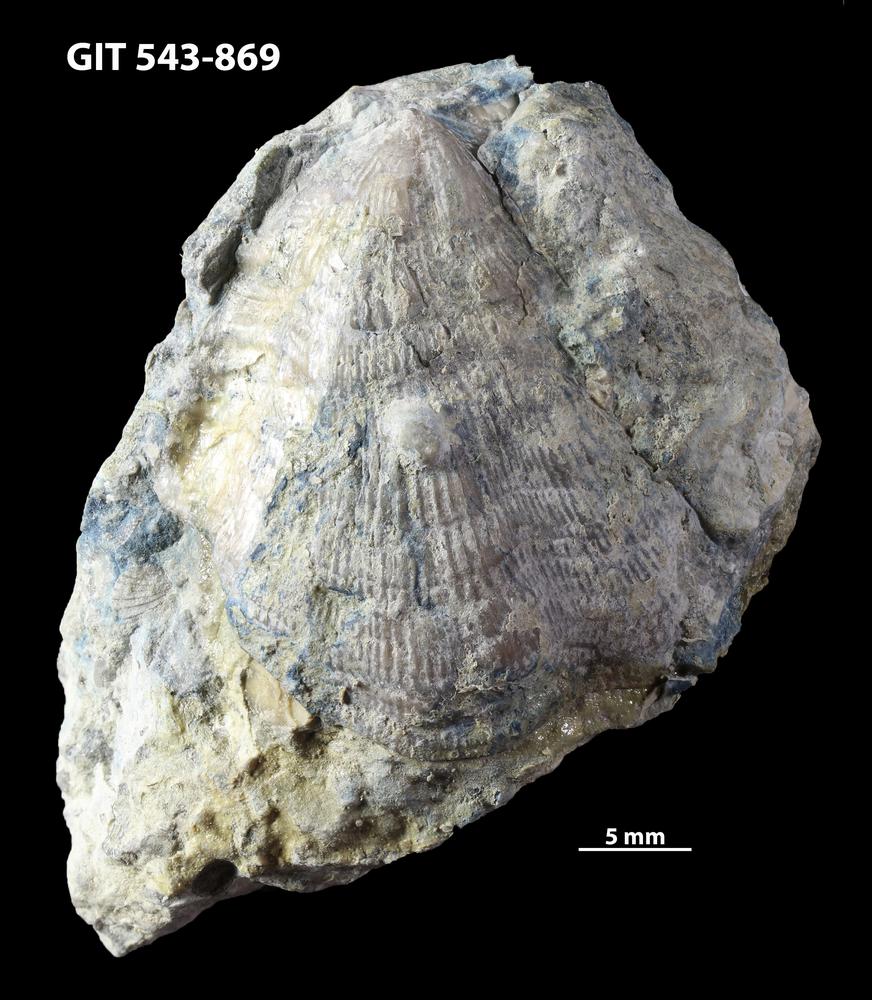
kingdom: Animalia
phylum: Brachiopoda
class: Rhynchonellata
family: Clitambonitidae
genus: Vellamo
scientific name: Vellamo magna
